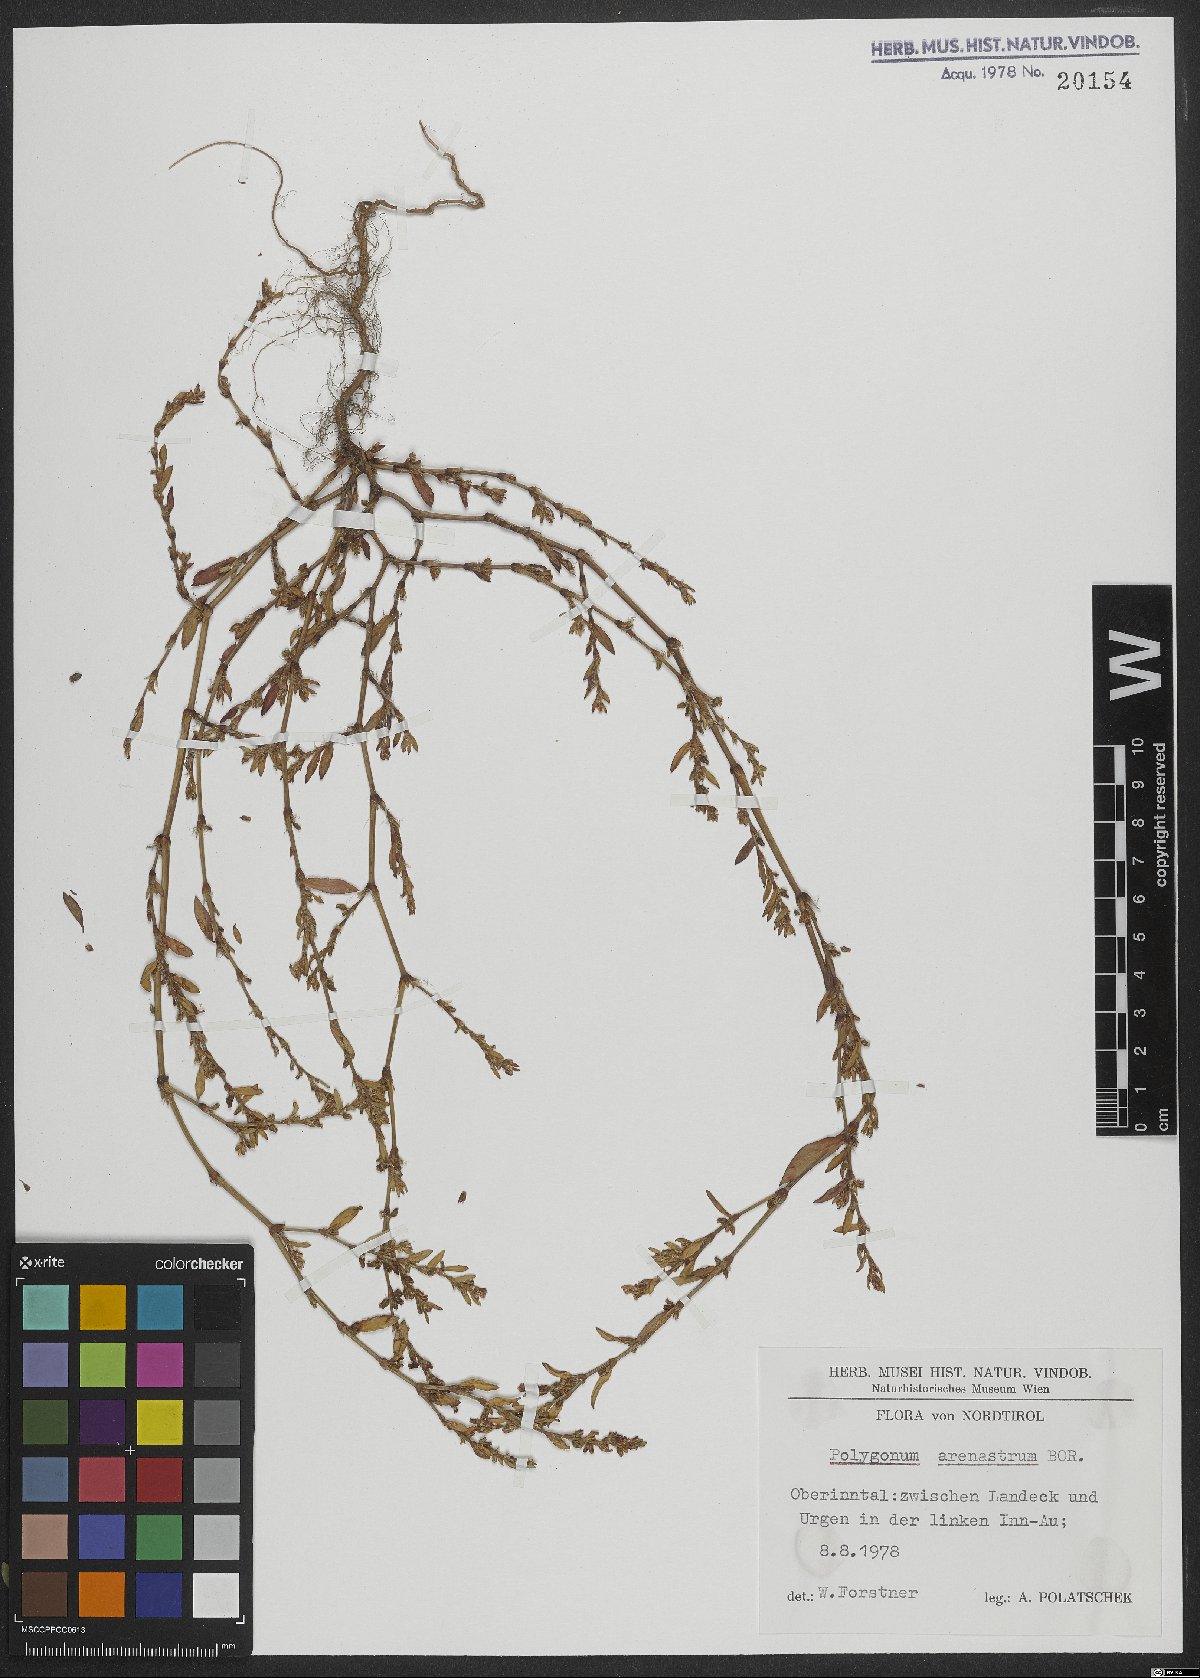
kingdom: Plantae
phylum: Tracheophyta
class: Magnoliopsida
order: Caryophyllales
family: Polygonaceae
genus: Polygonum
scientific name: Polygonum arenastrum
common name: Equal-leaved knotgrass
